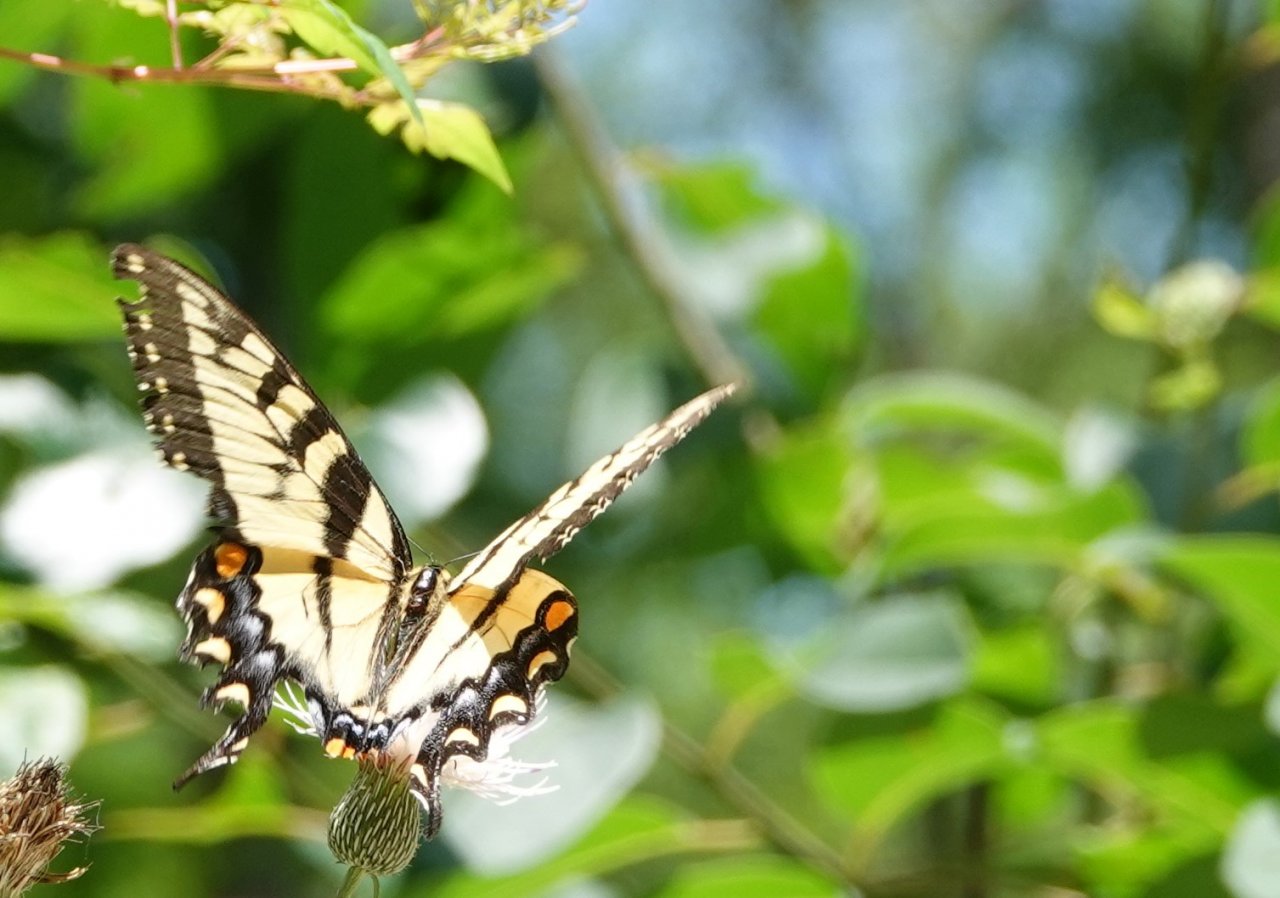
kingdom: Animalia
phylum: Arthropoda
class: Insecta
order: Lepidoptera
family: Papilionidae
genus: Pterourus
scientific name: Pterourus glaucus
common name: Eastern Tiger Swallowtail
